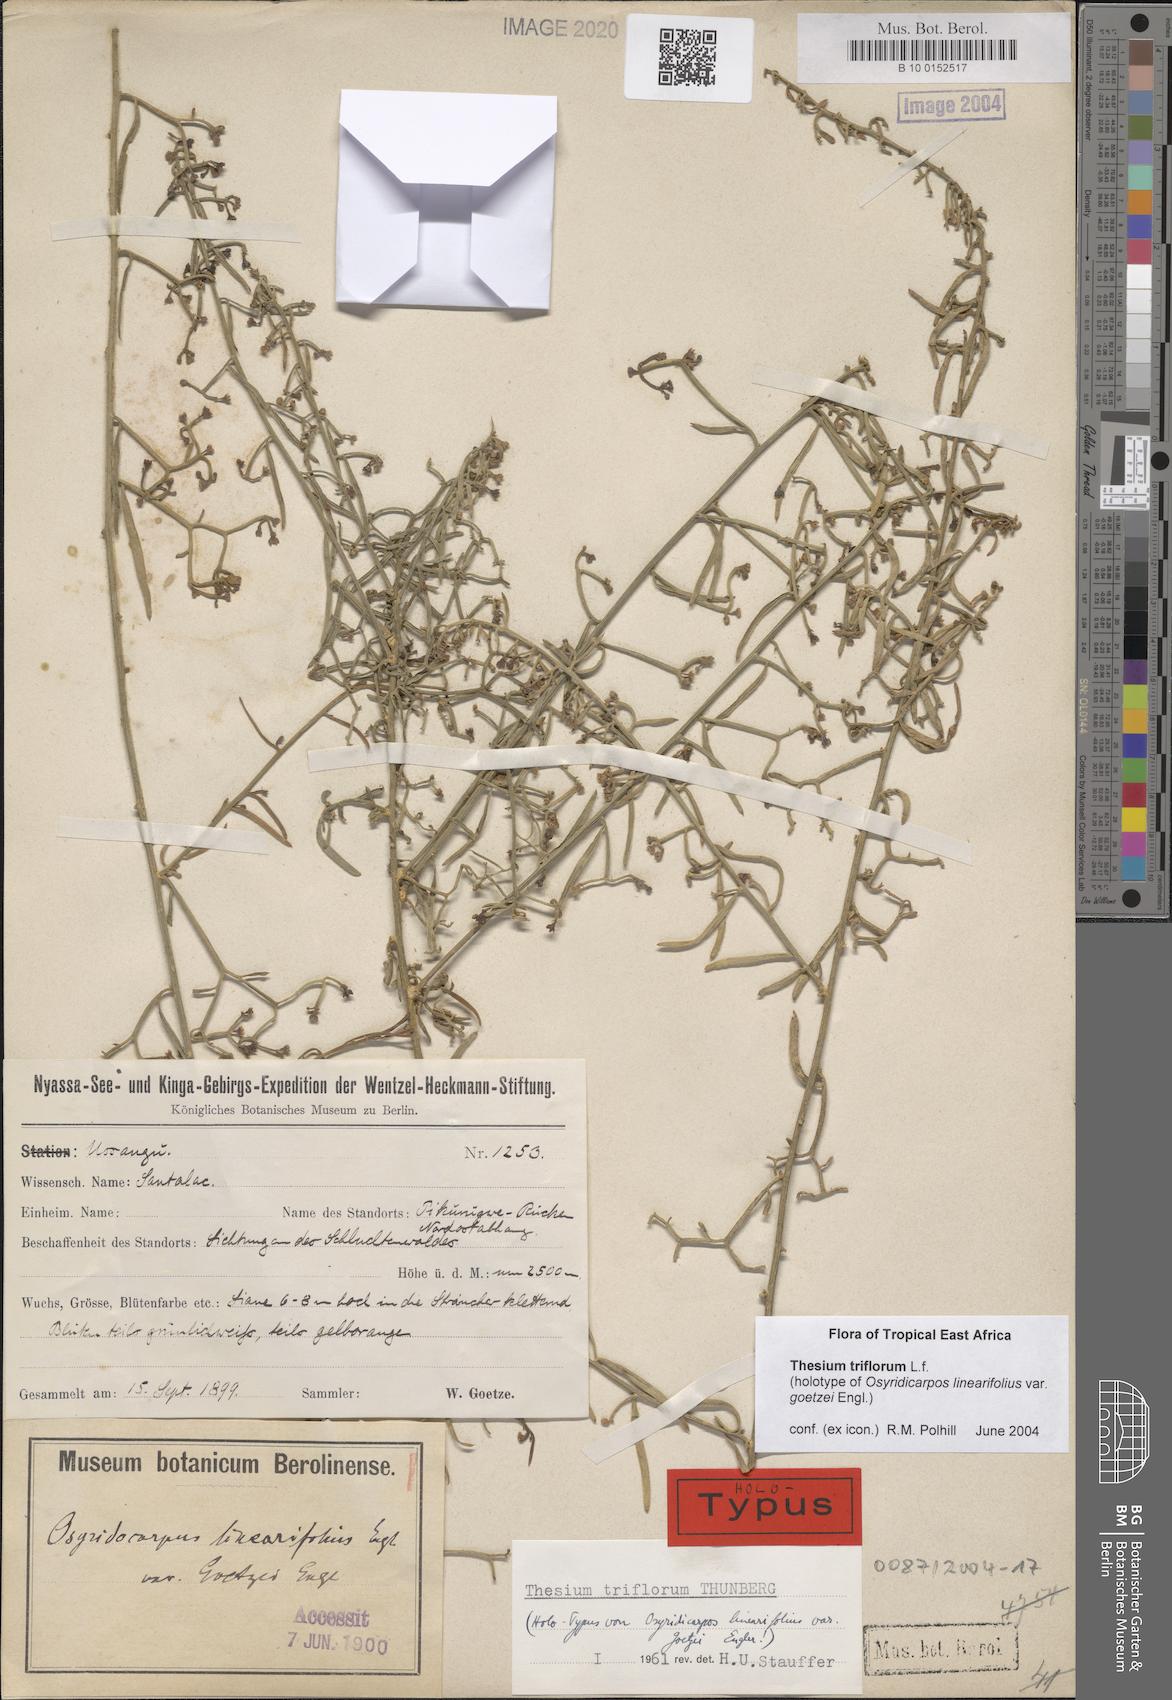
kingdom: Plantae
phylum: Tracheophyta
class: Magnoliopsida
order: Santalales
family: Thesiaceae
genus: Thesium
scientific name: Thesium triflorum
